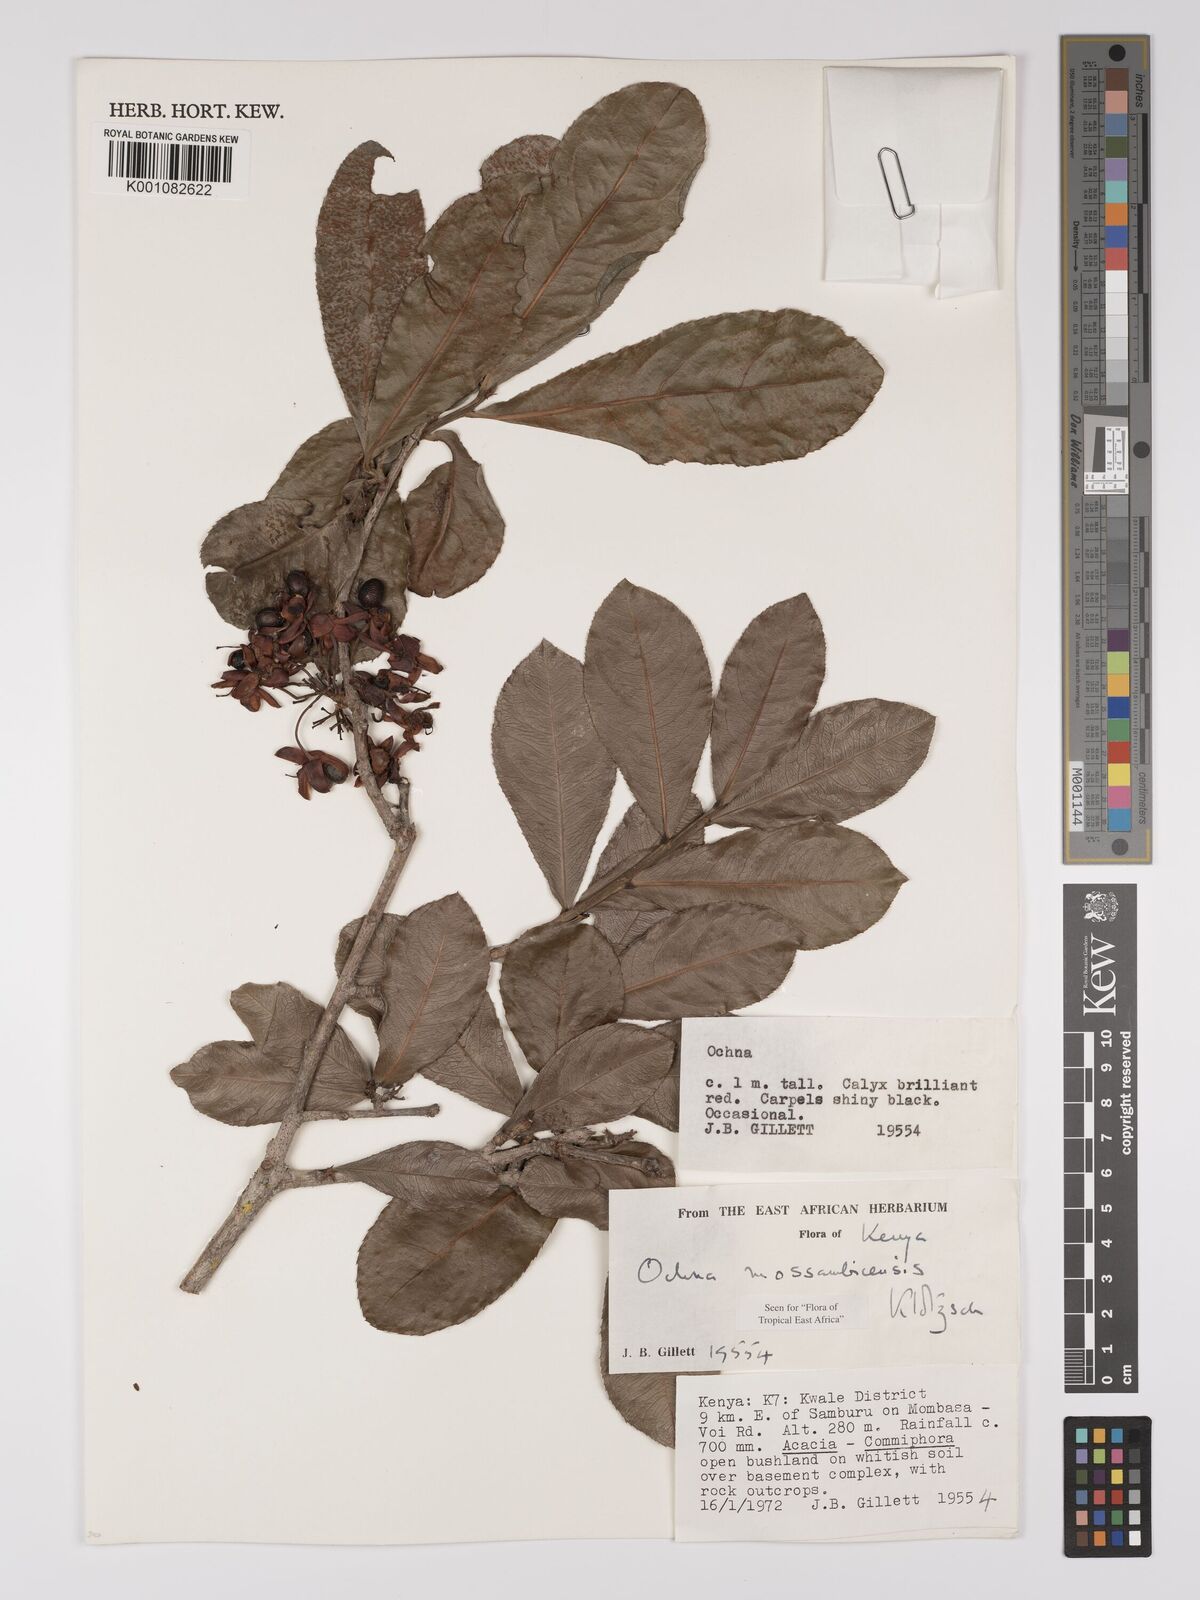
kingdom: Plantae
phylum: Tracheophyta
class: Magnoliopsida
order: Malpighiales
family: Ochnaceae
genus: Ochna
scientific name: Ochna atropurpurea
